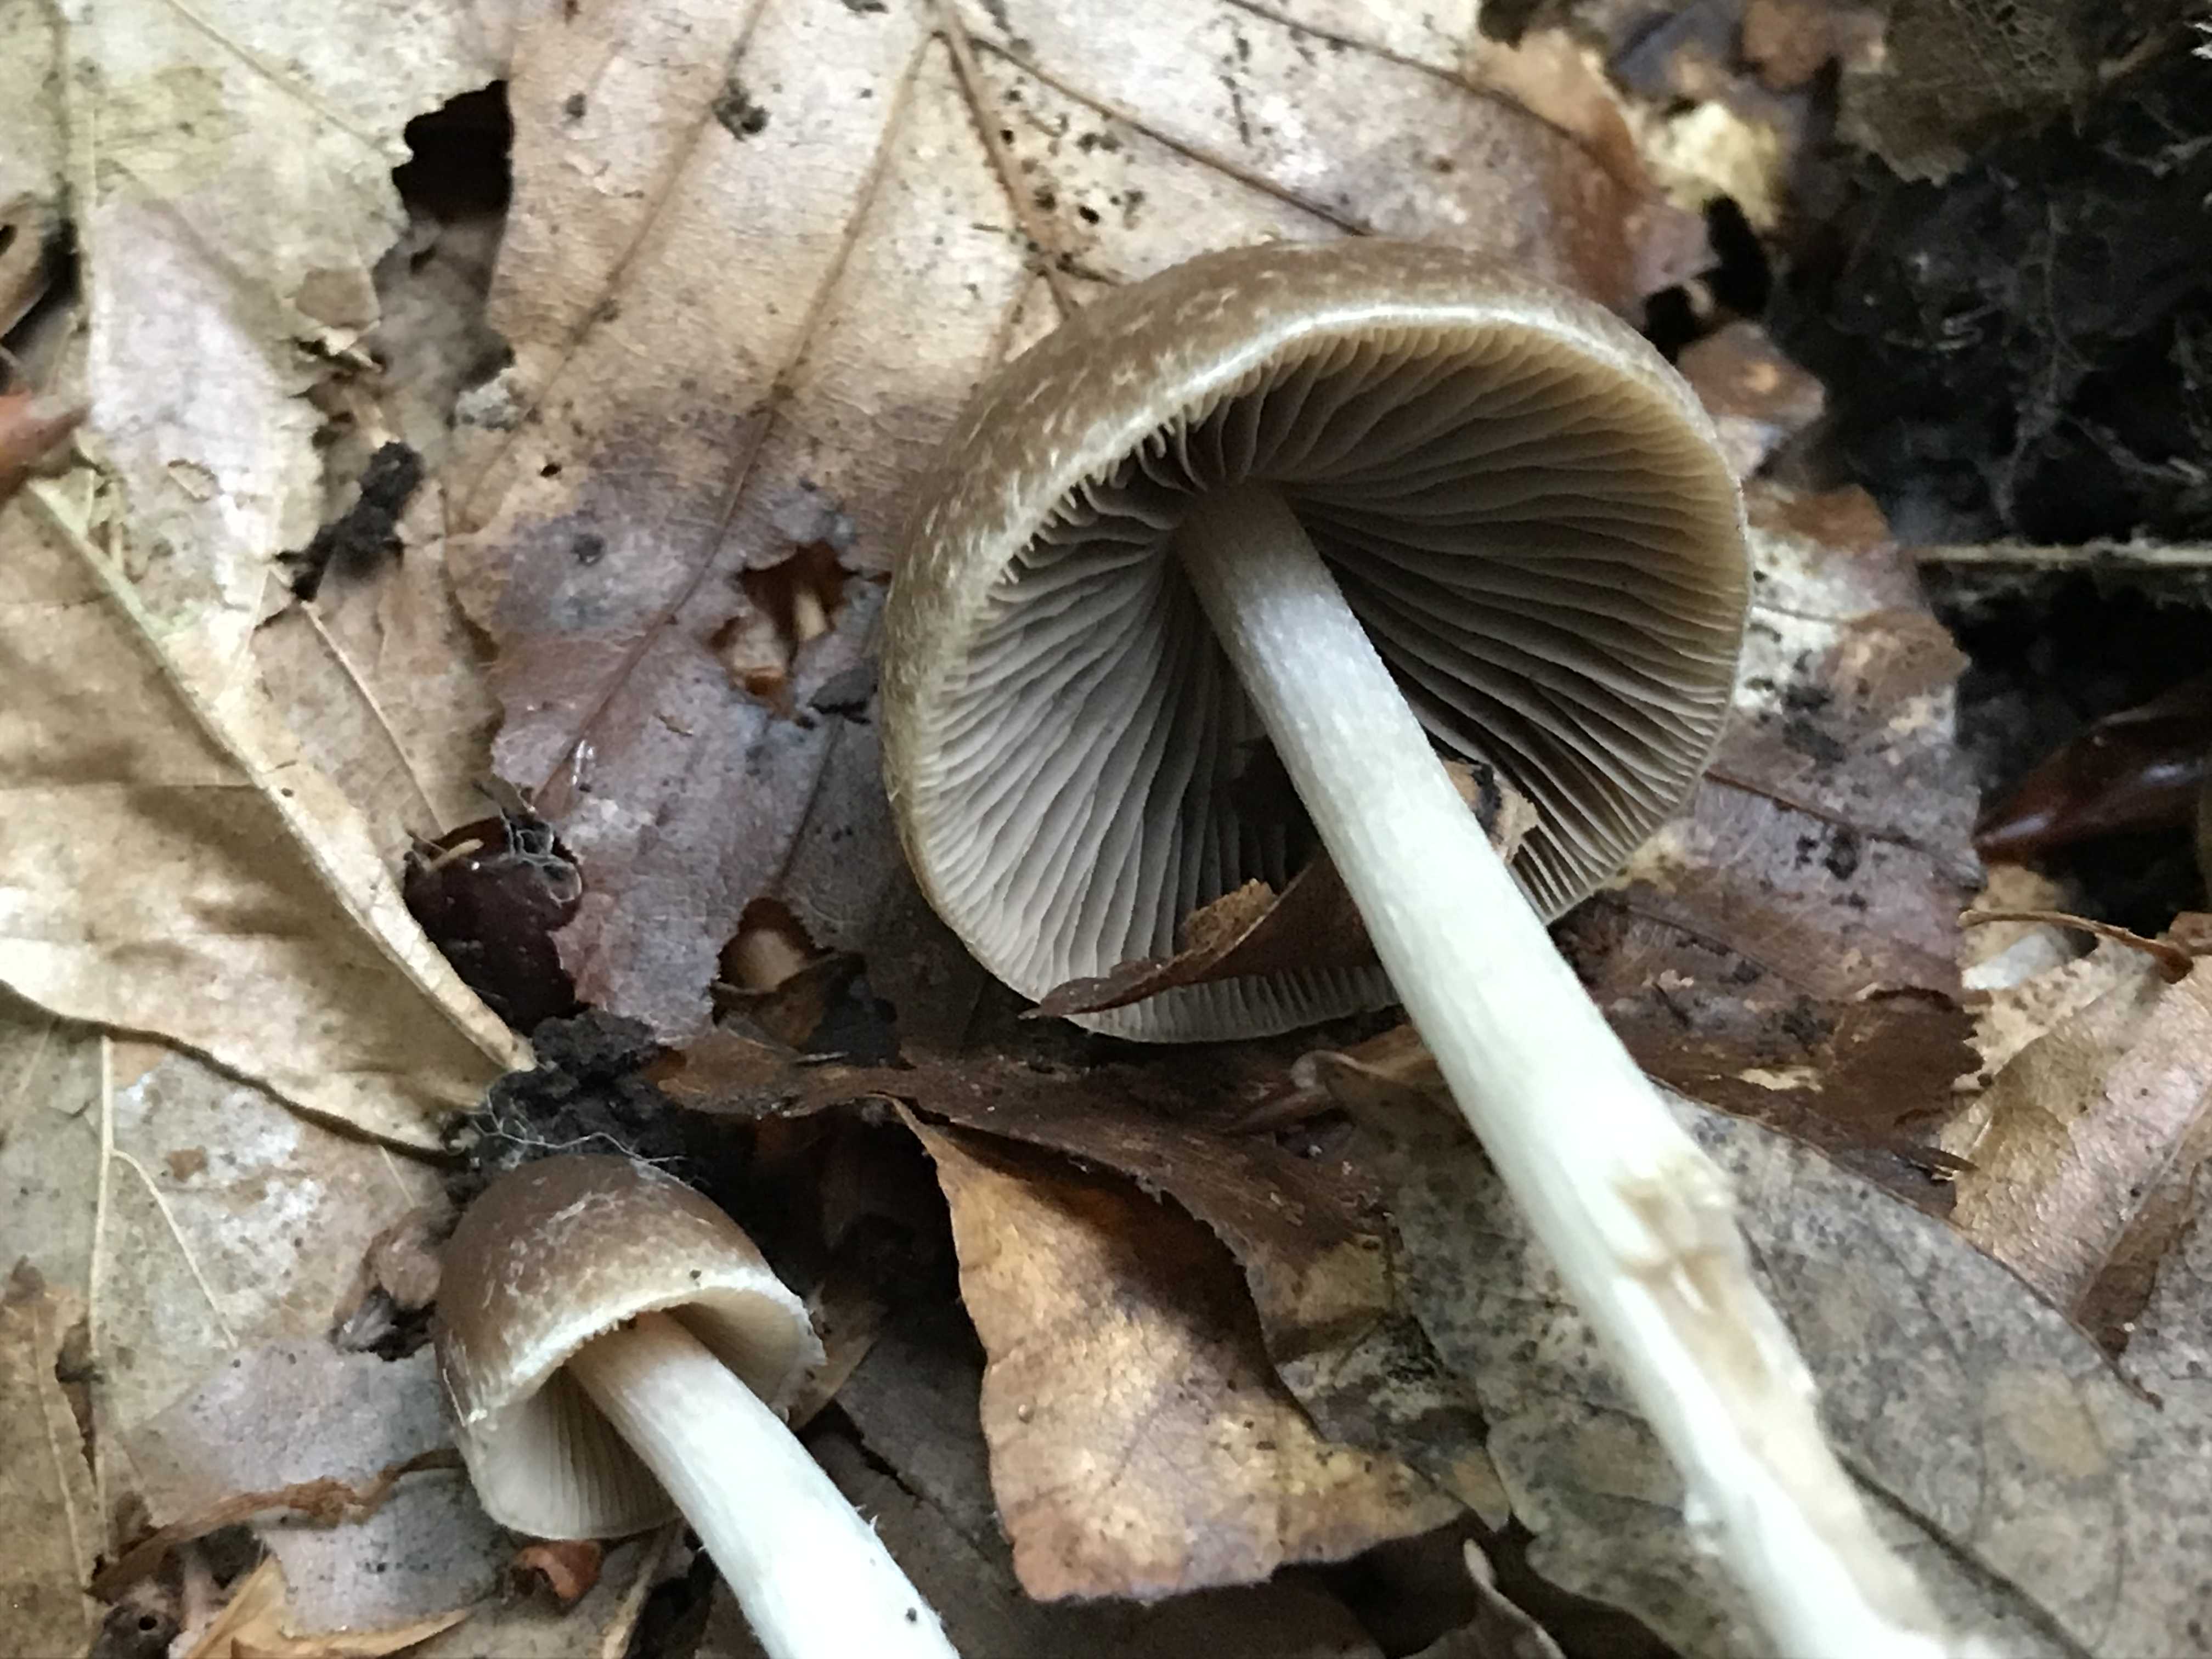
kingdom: Fungi
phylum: Basidiomycota
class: Agaricomycetes
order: Agaricales
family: Psathyrellaceae
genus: Psathyrella
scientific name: Psathyrella
